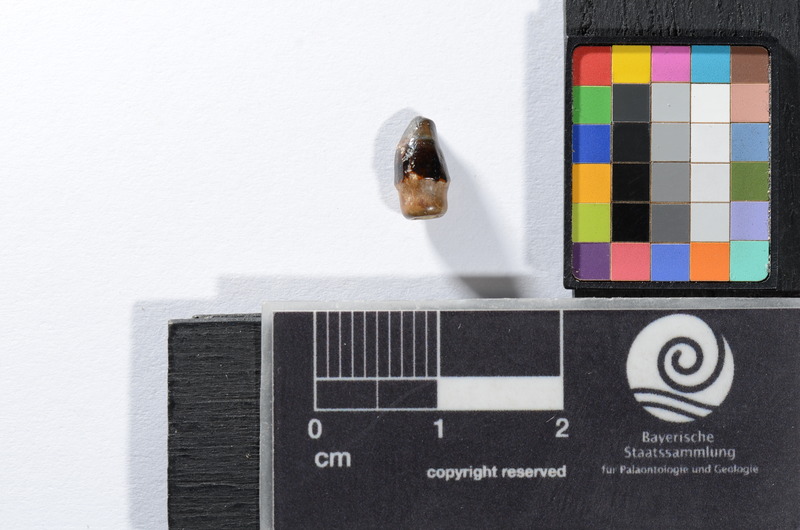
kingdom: Animalia
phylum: Chordata
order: Perciformes
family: Sparidae
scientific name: Sparidae
